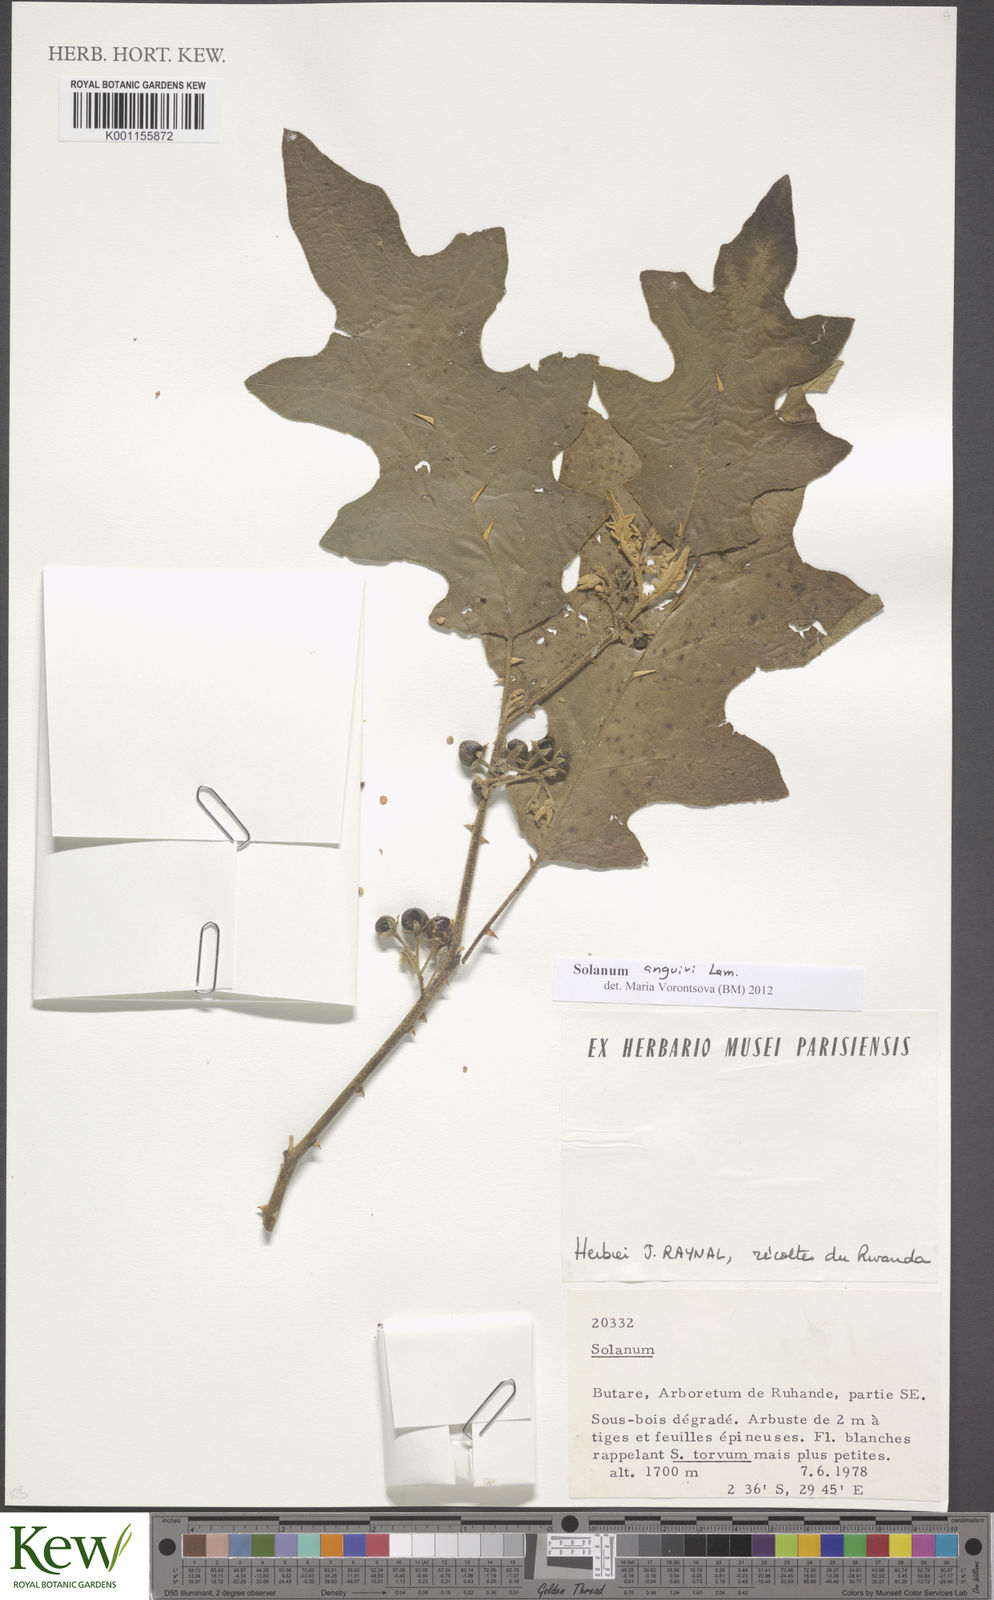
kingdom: Plantae
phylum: Tracheophyta
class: Magnoliopsida
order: Solanales
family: Solanaceae
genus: Solanum
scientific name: Solanum anguivi
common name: Forest bitterberry
